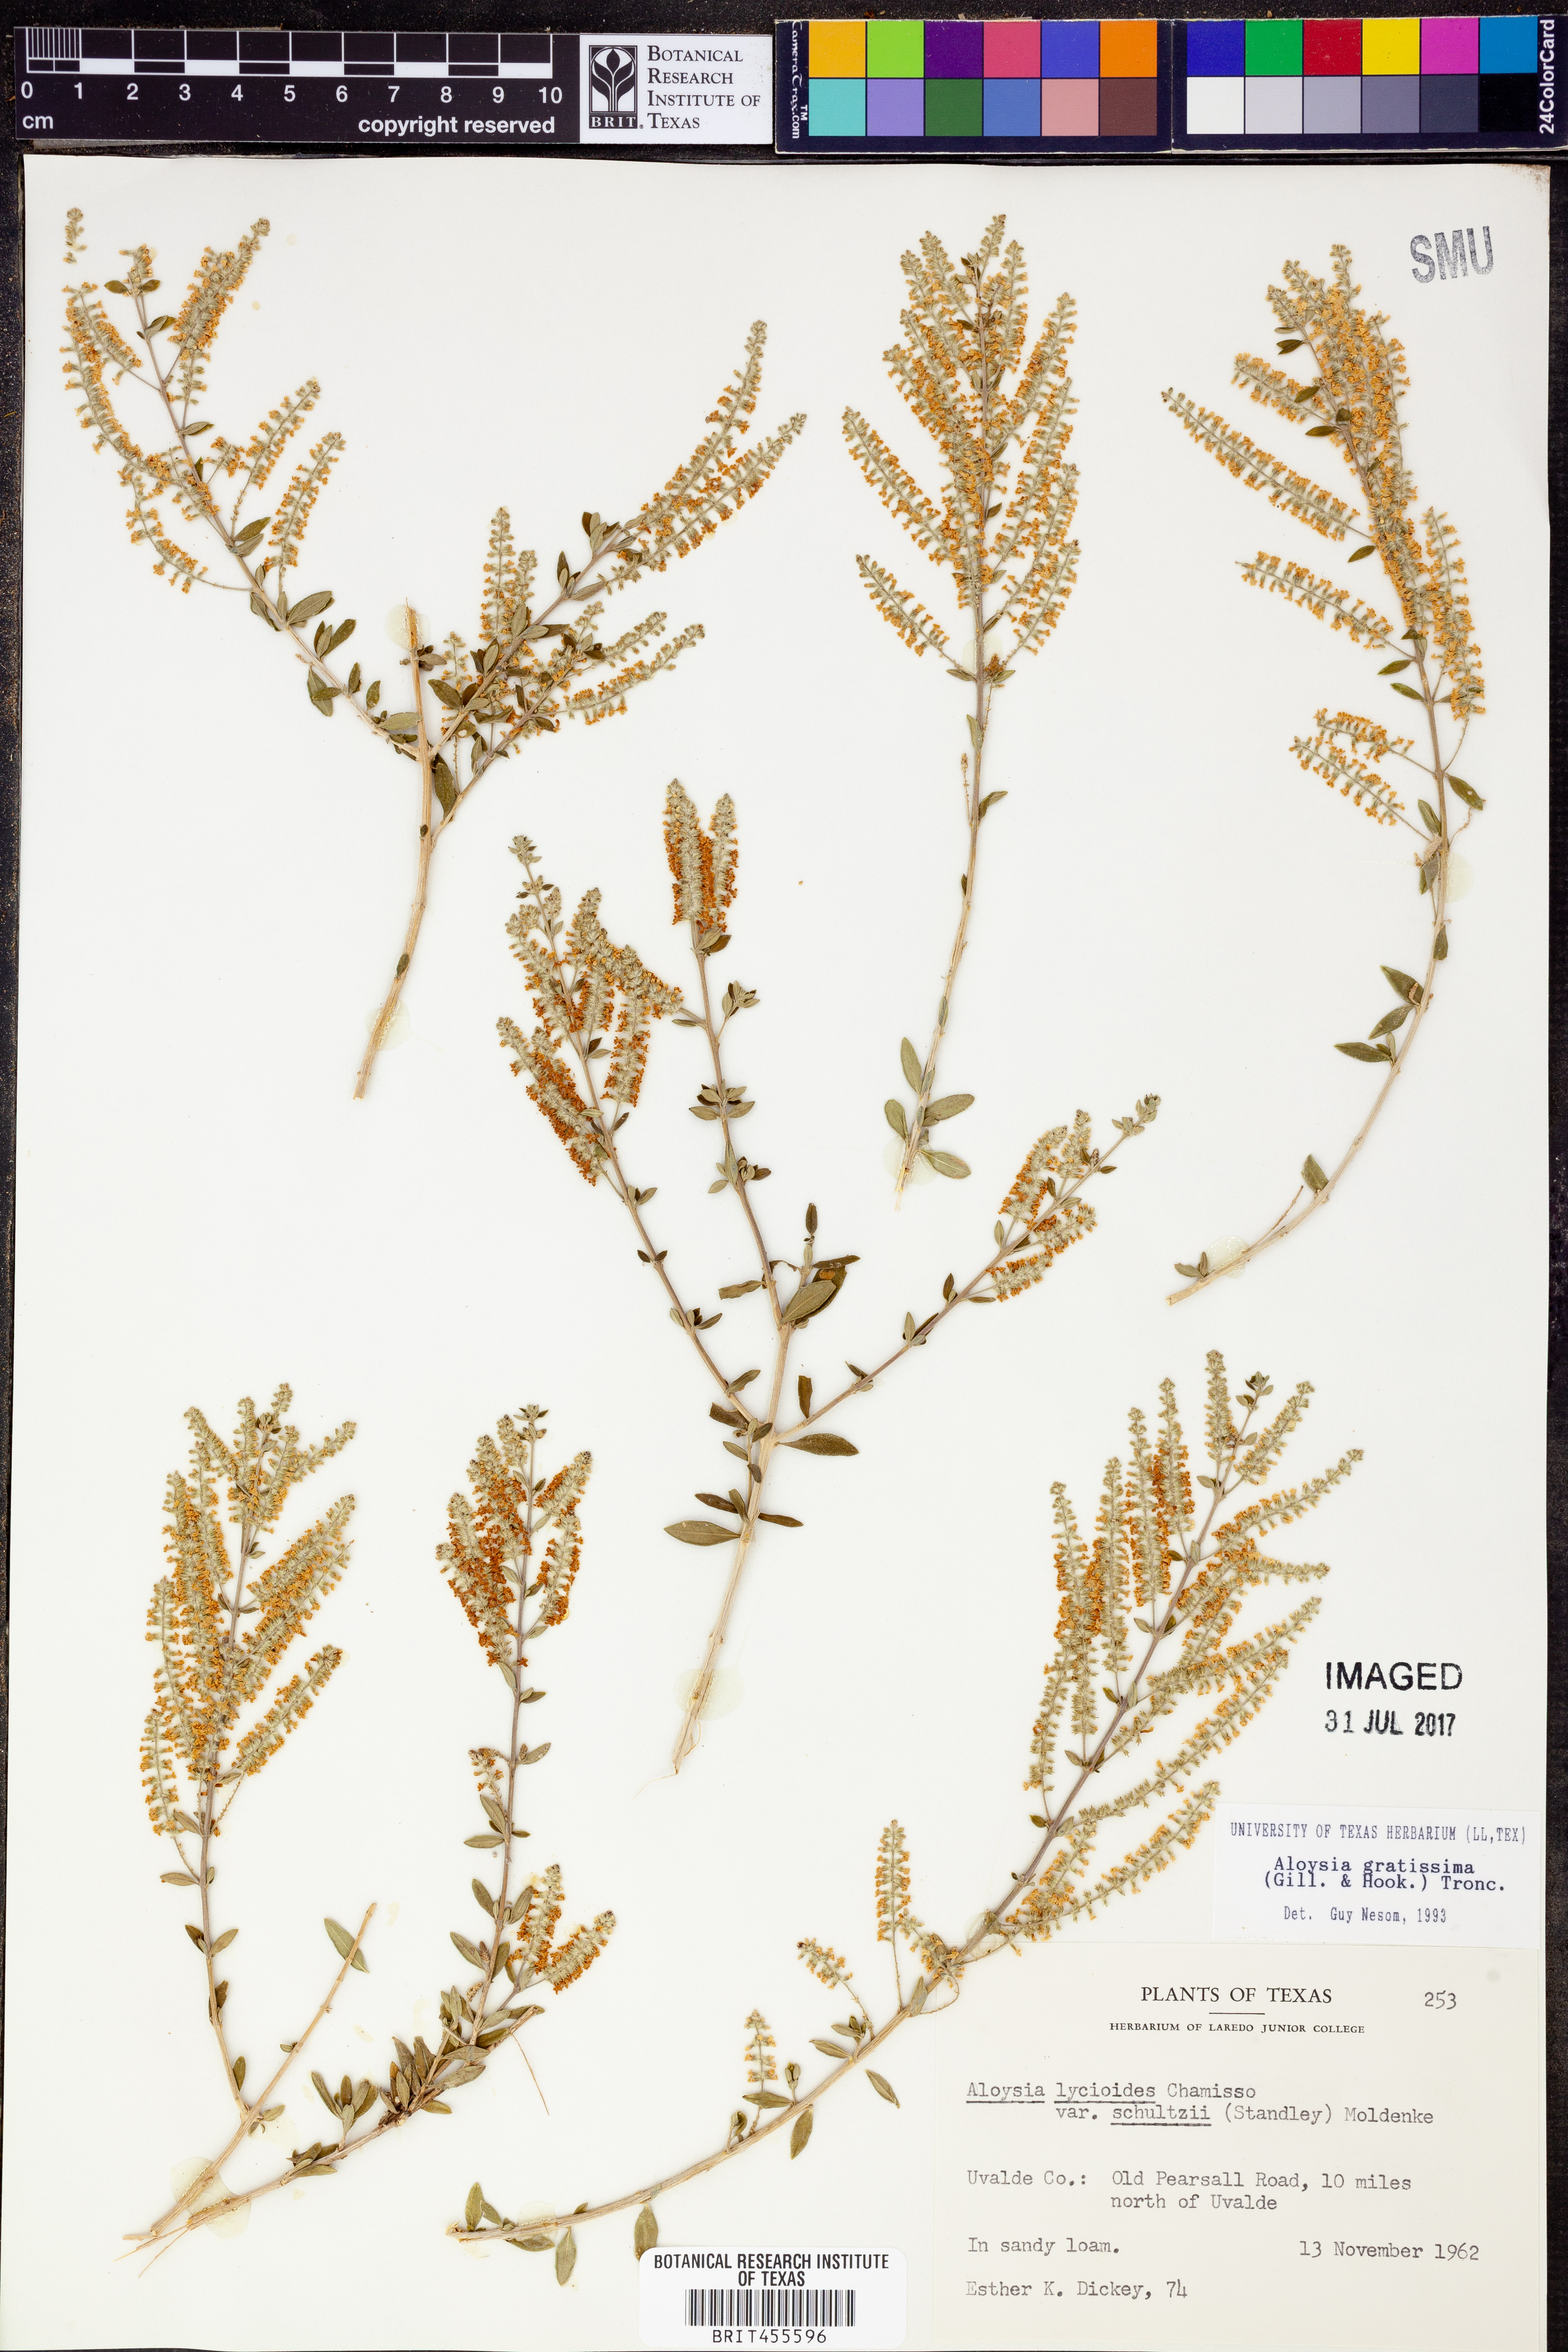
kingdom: Plantae
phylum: Tracheophyta
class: Magnoliopsida
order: Lamiales
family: Verbenaceae
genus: Aloysia
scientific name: Aloysia gratissima
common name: Common bee-brush
